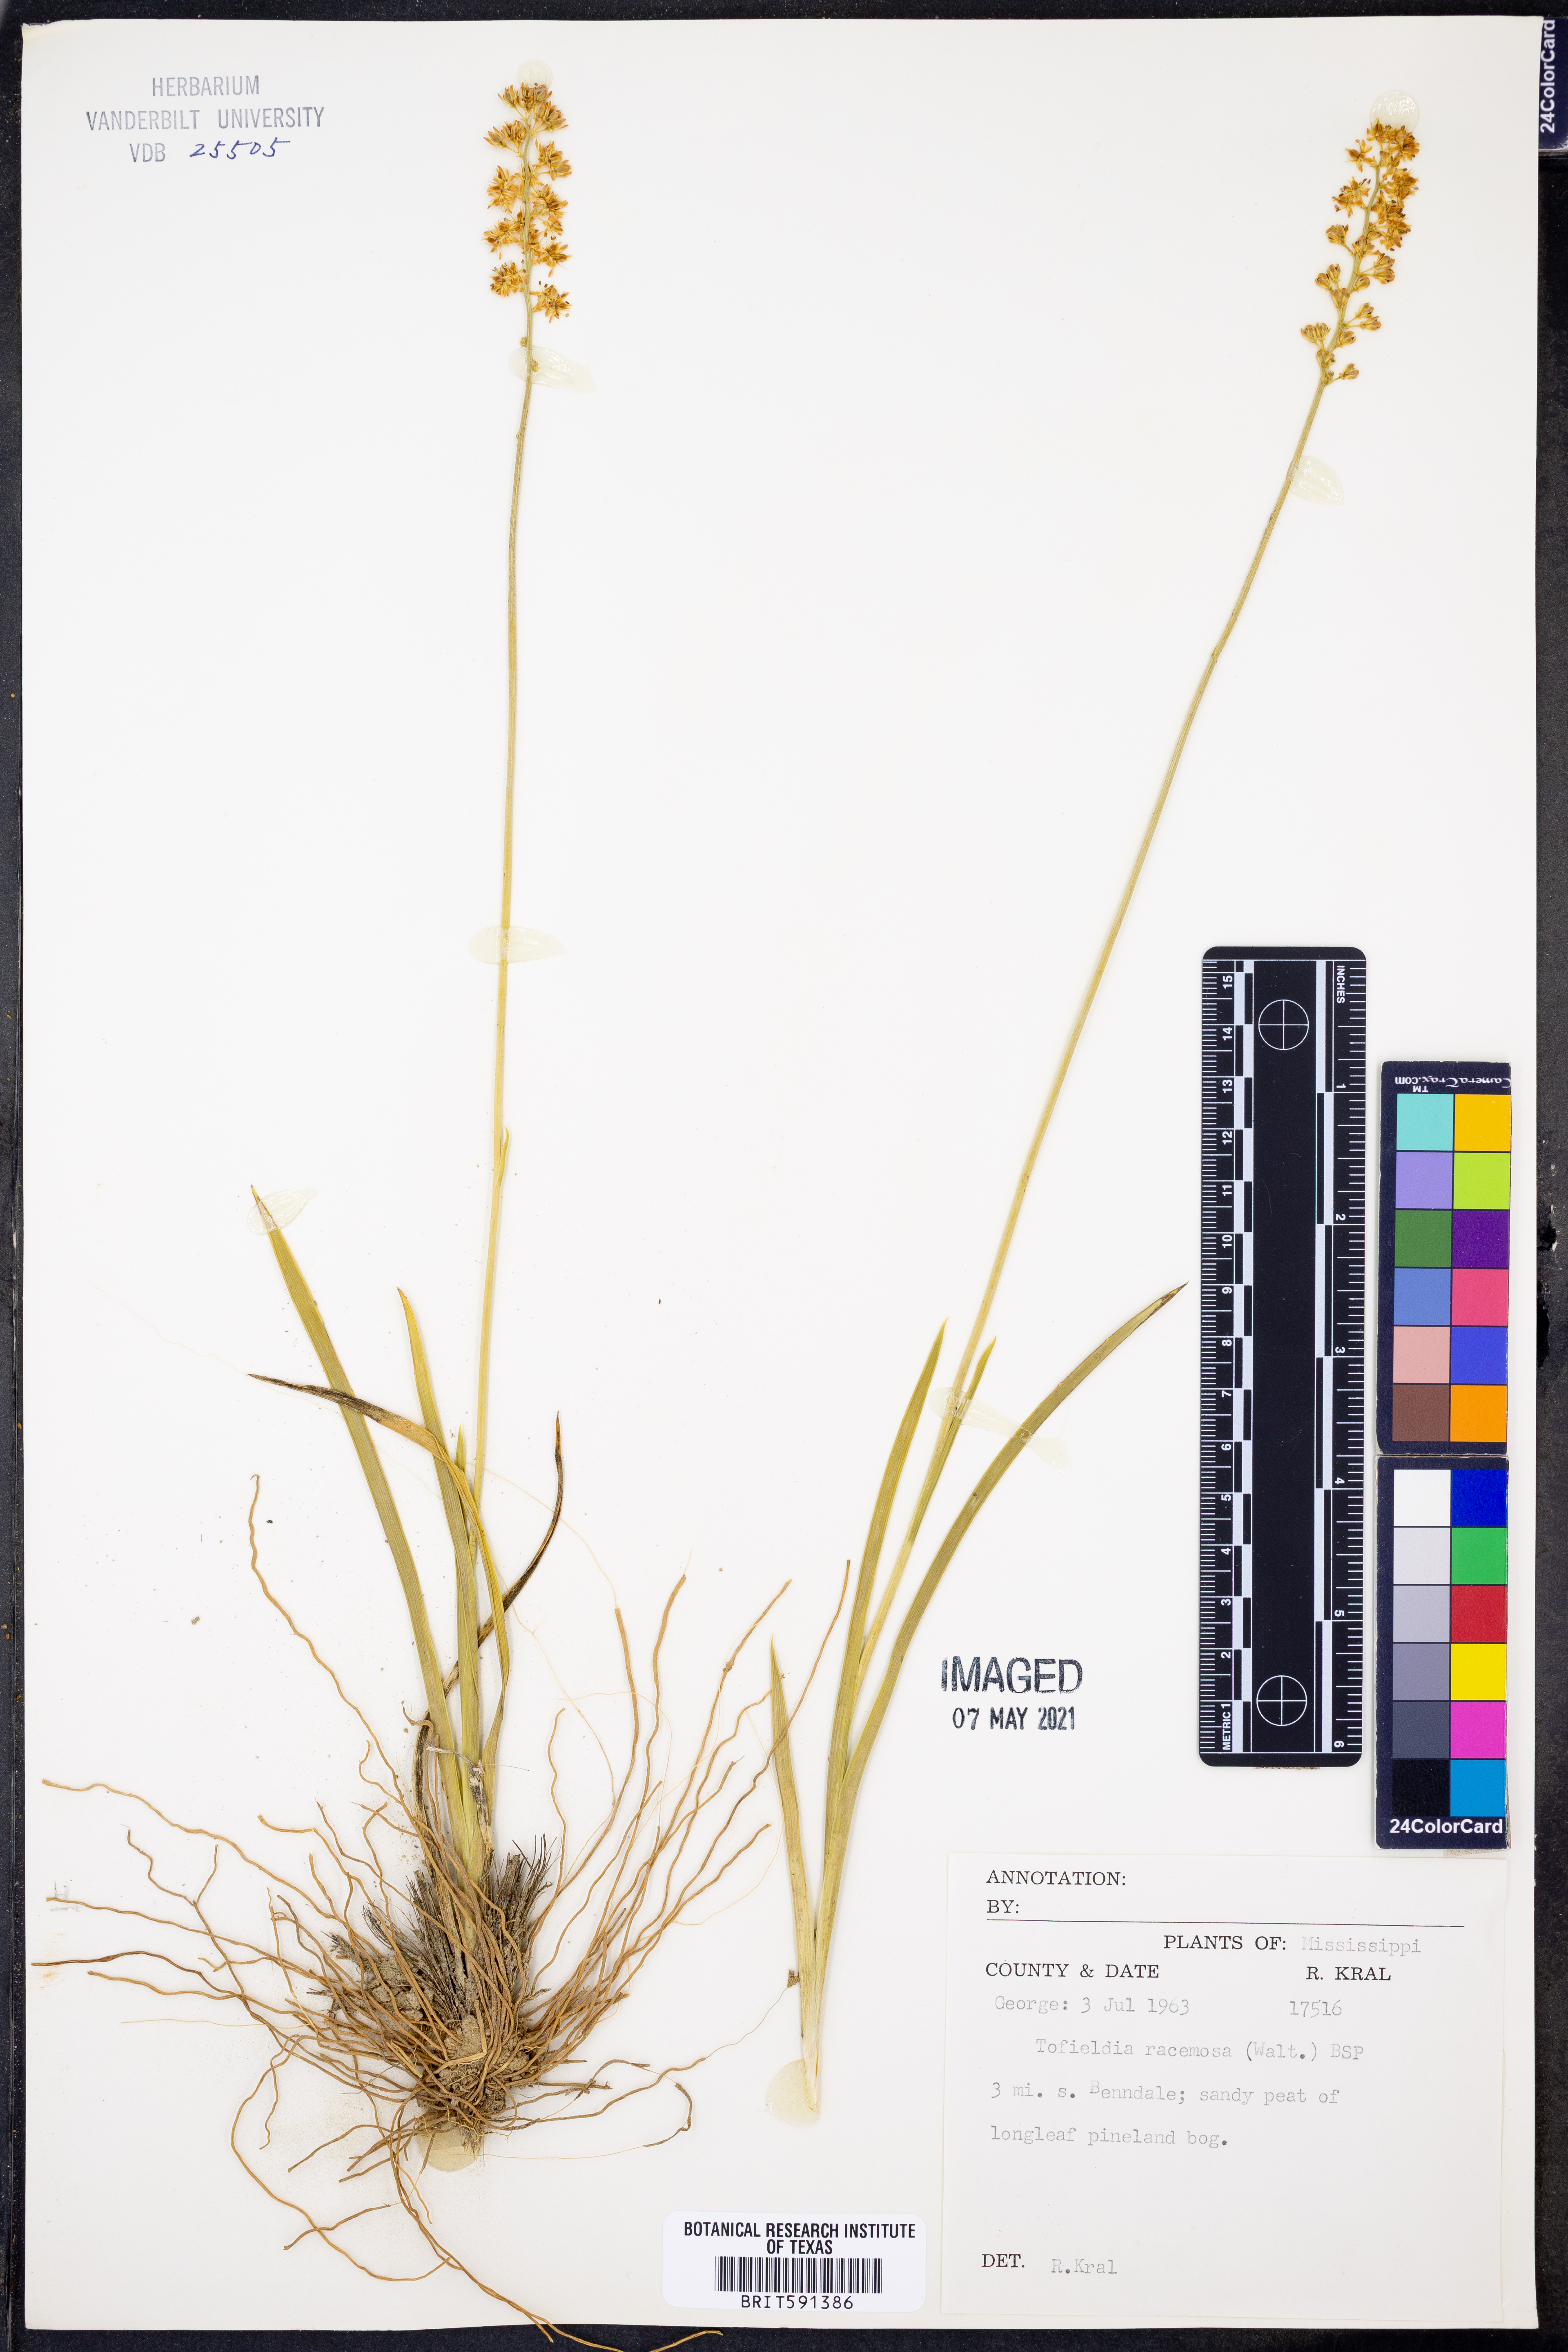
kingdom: Plantae
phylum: Tracheophyta
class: Liliopsida
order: Alismatales
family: Tofieldiaceae
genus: Triantha
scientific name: Triantha racemosa
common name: Coastal false asphodel
